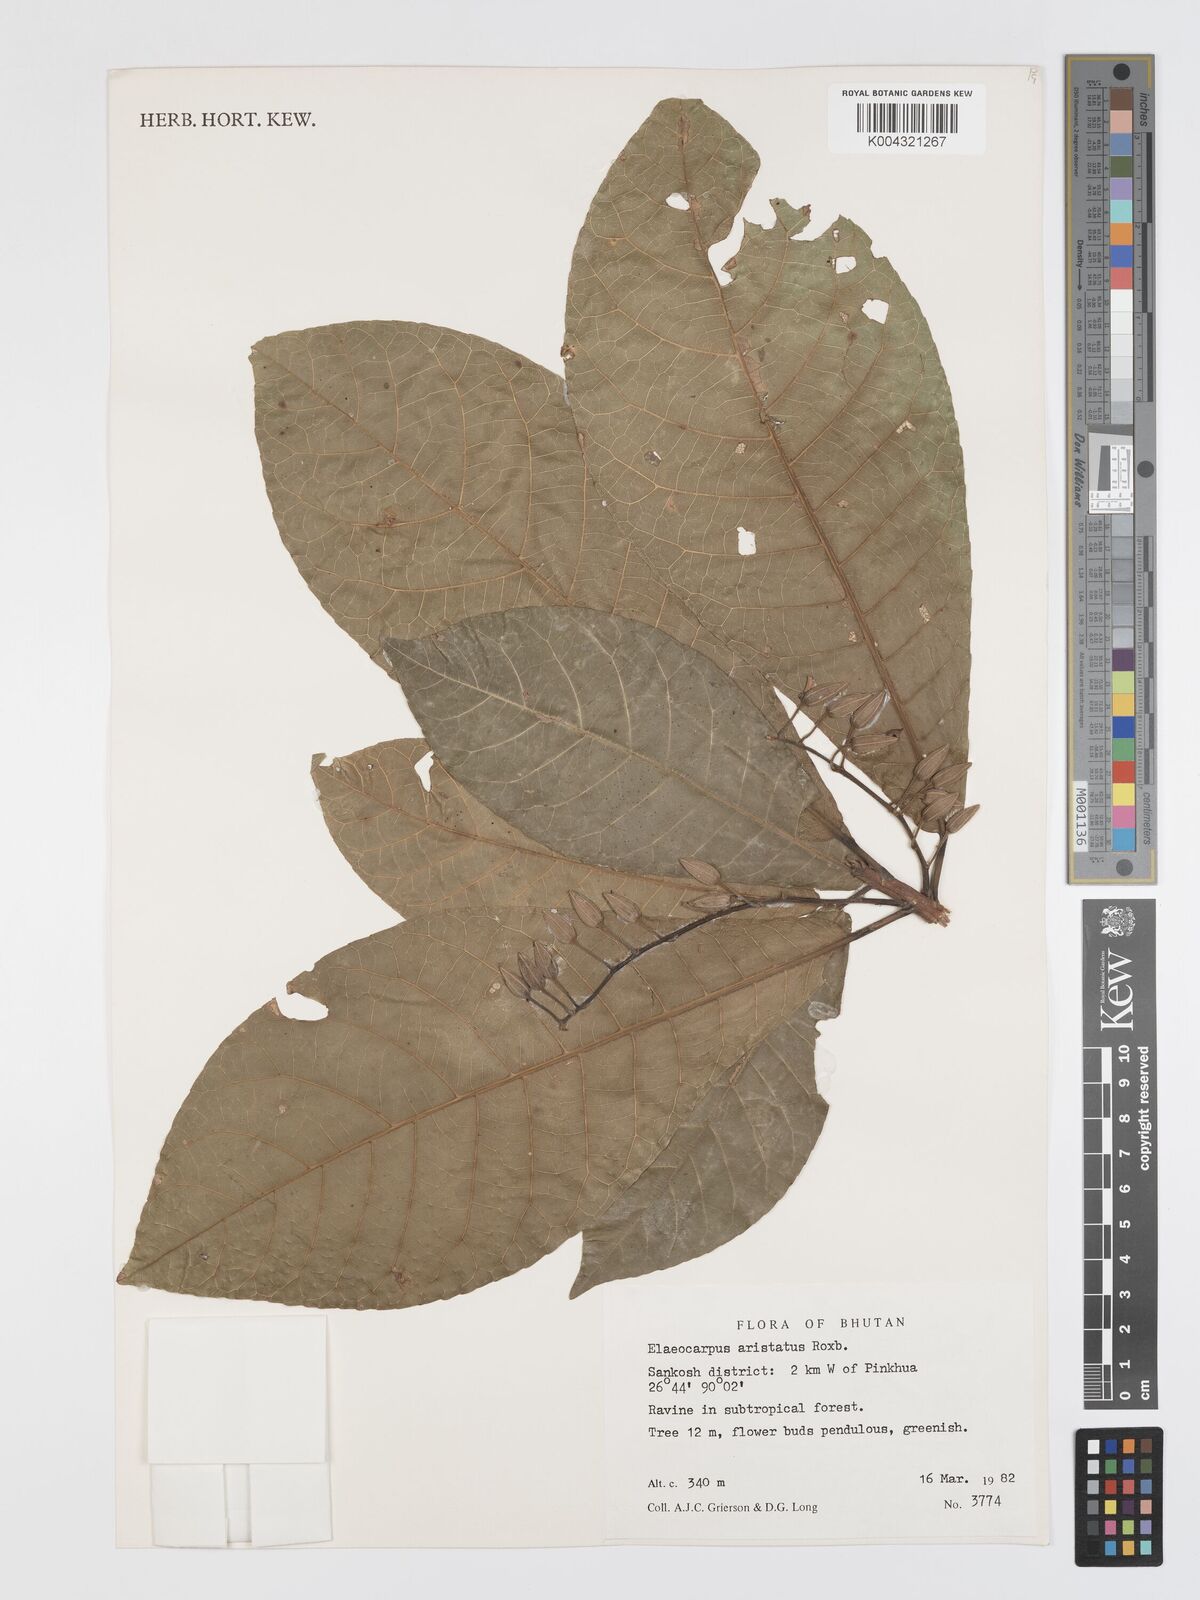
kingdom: Plantae
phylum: Tracheophyta
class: Magnoliopsida
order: Oxalidales
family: Elaeocarpaceae
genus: Elaeocarpus
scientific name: Elaeocarpus aristatus
